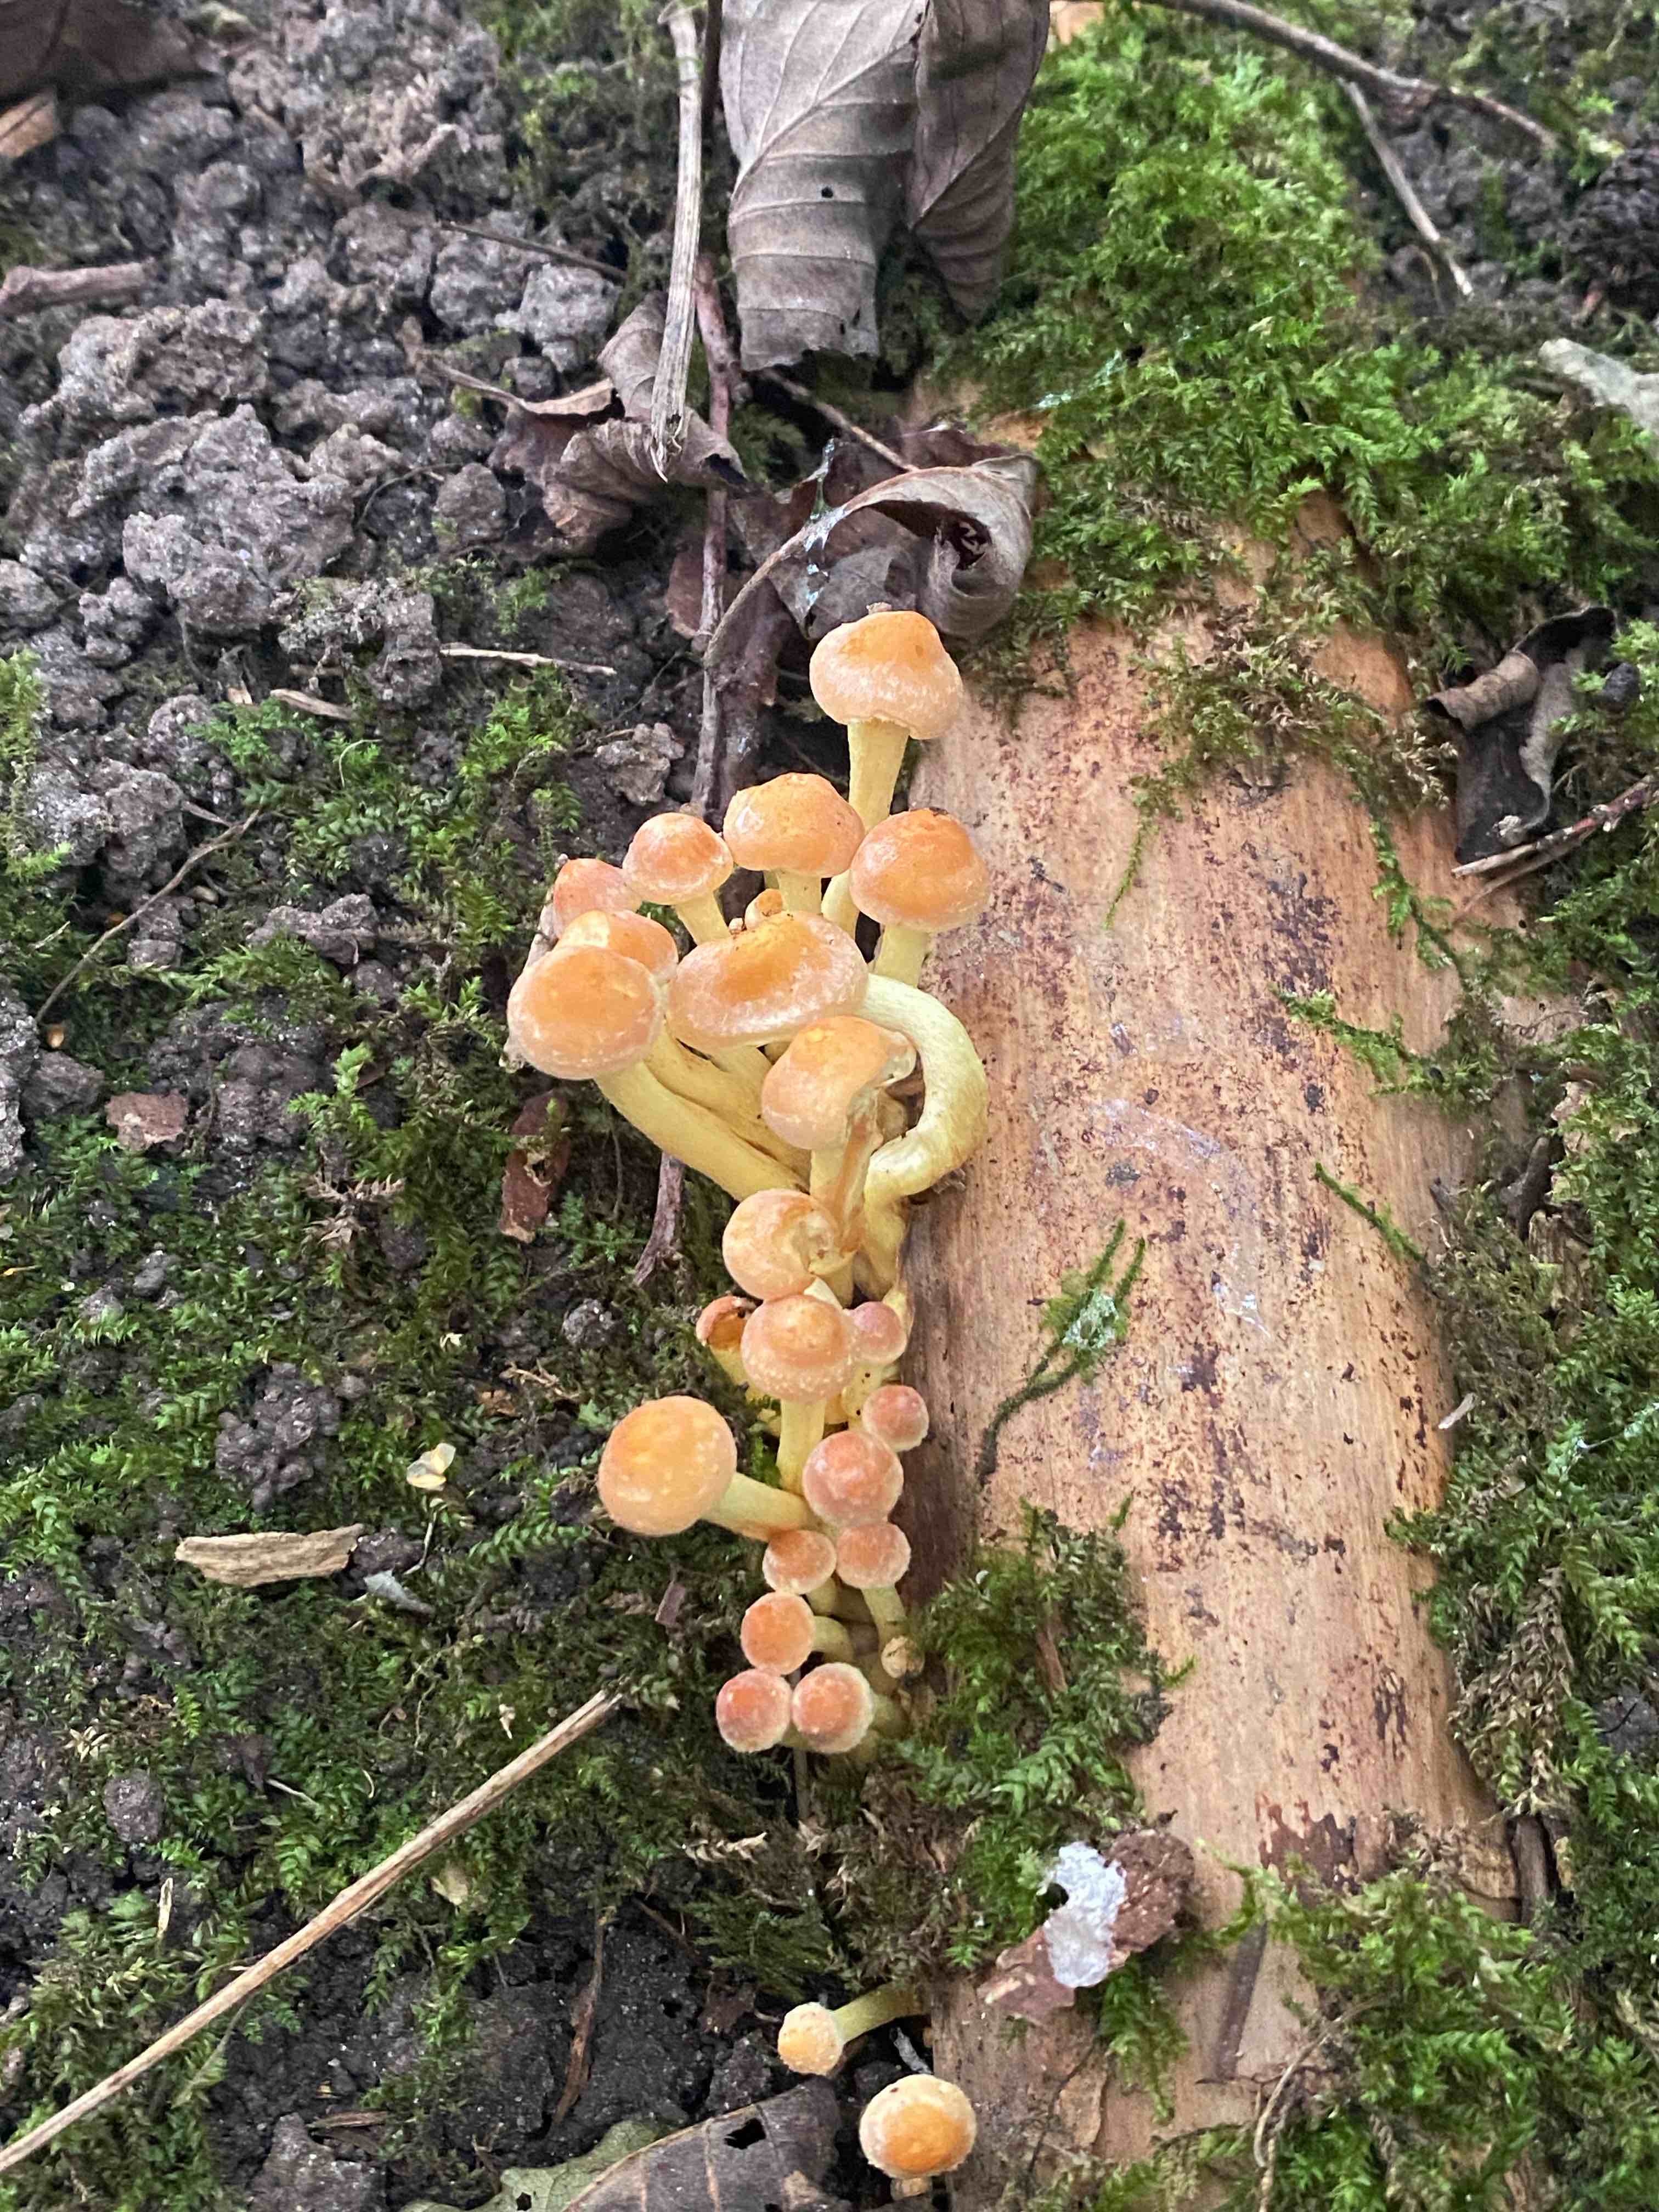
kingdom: Fungi
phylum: Basidiomycota
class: Agaricomycetes
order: Agaricales
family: Strophariaceae
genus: Hypholoma
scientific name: Hypholoma fasciculare
